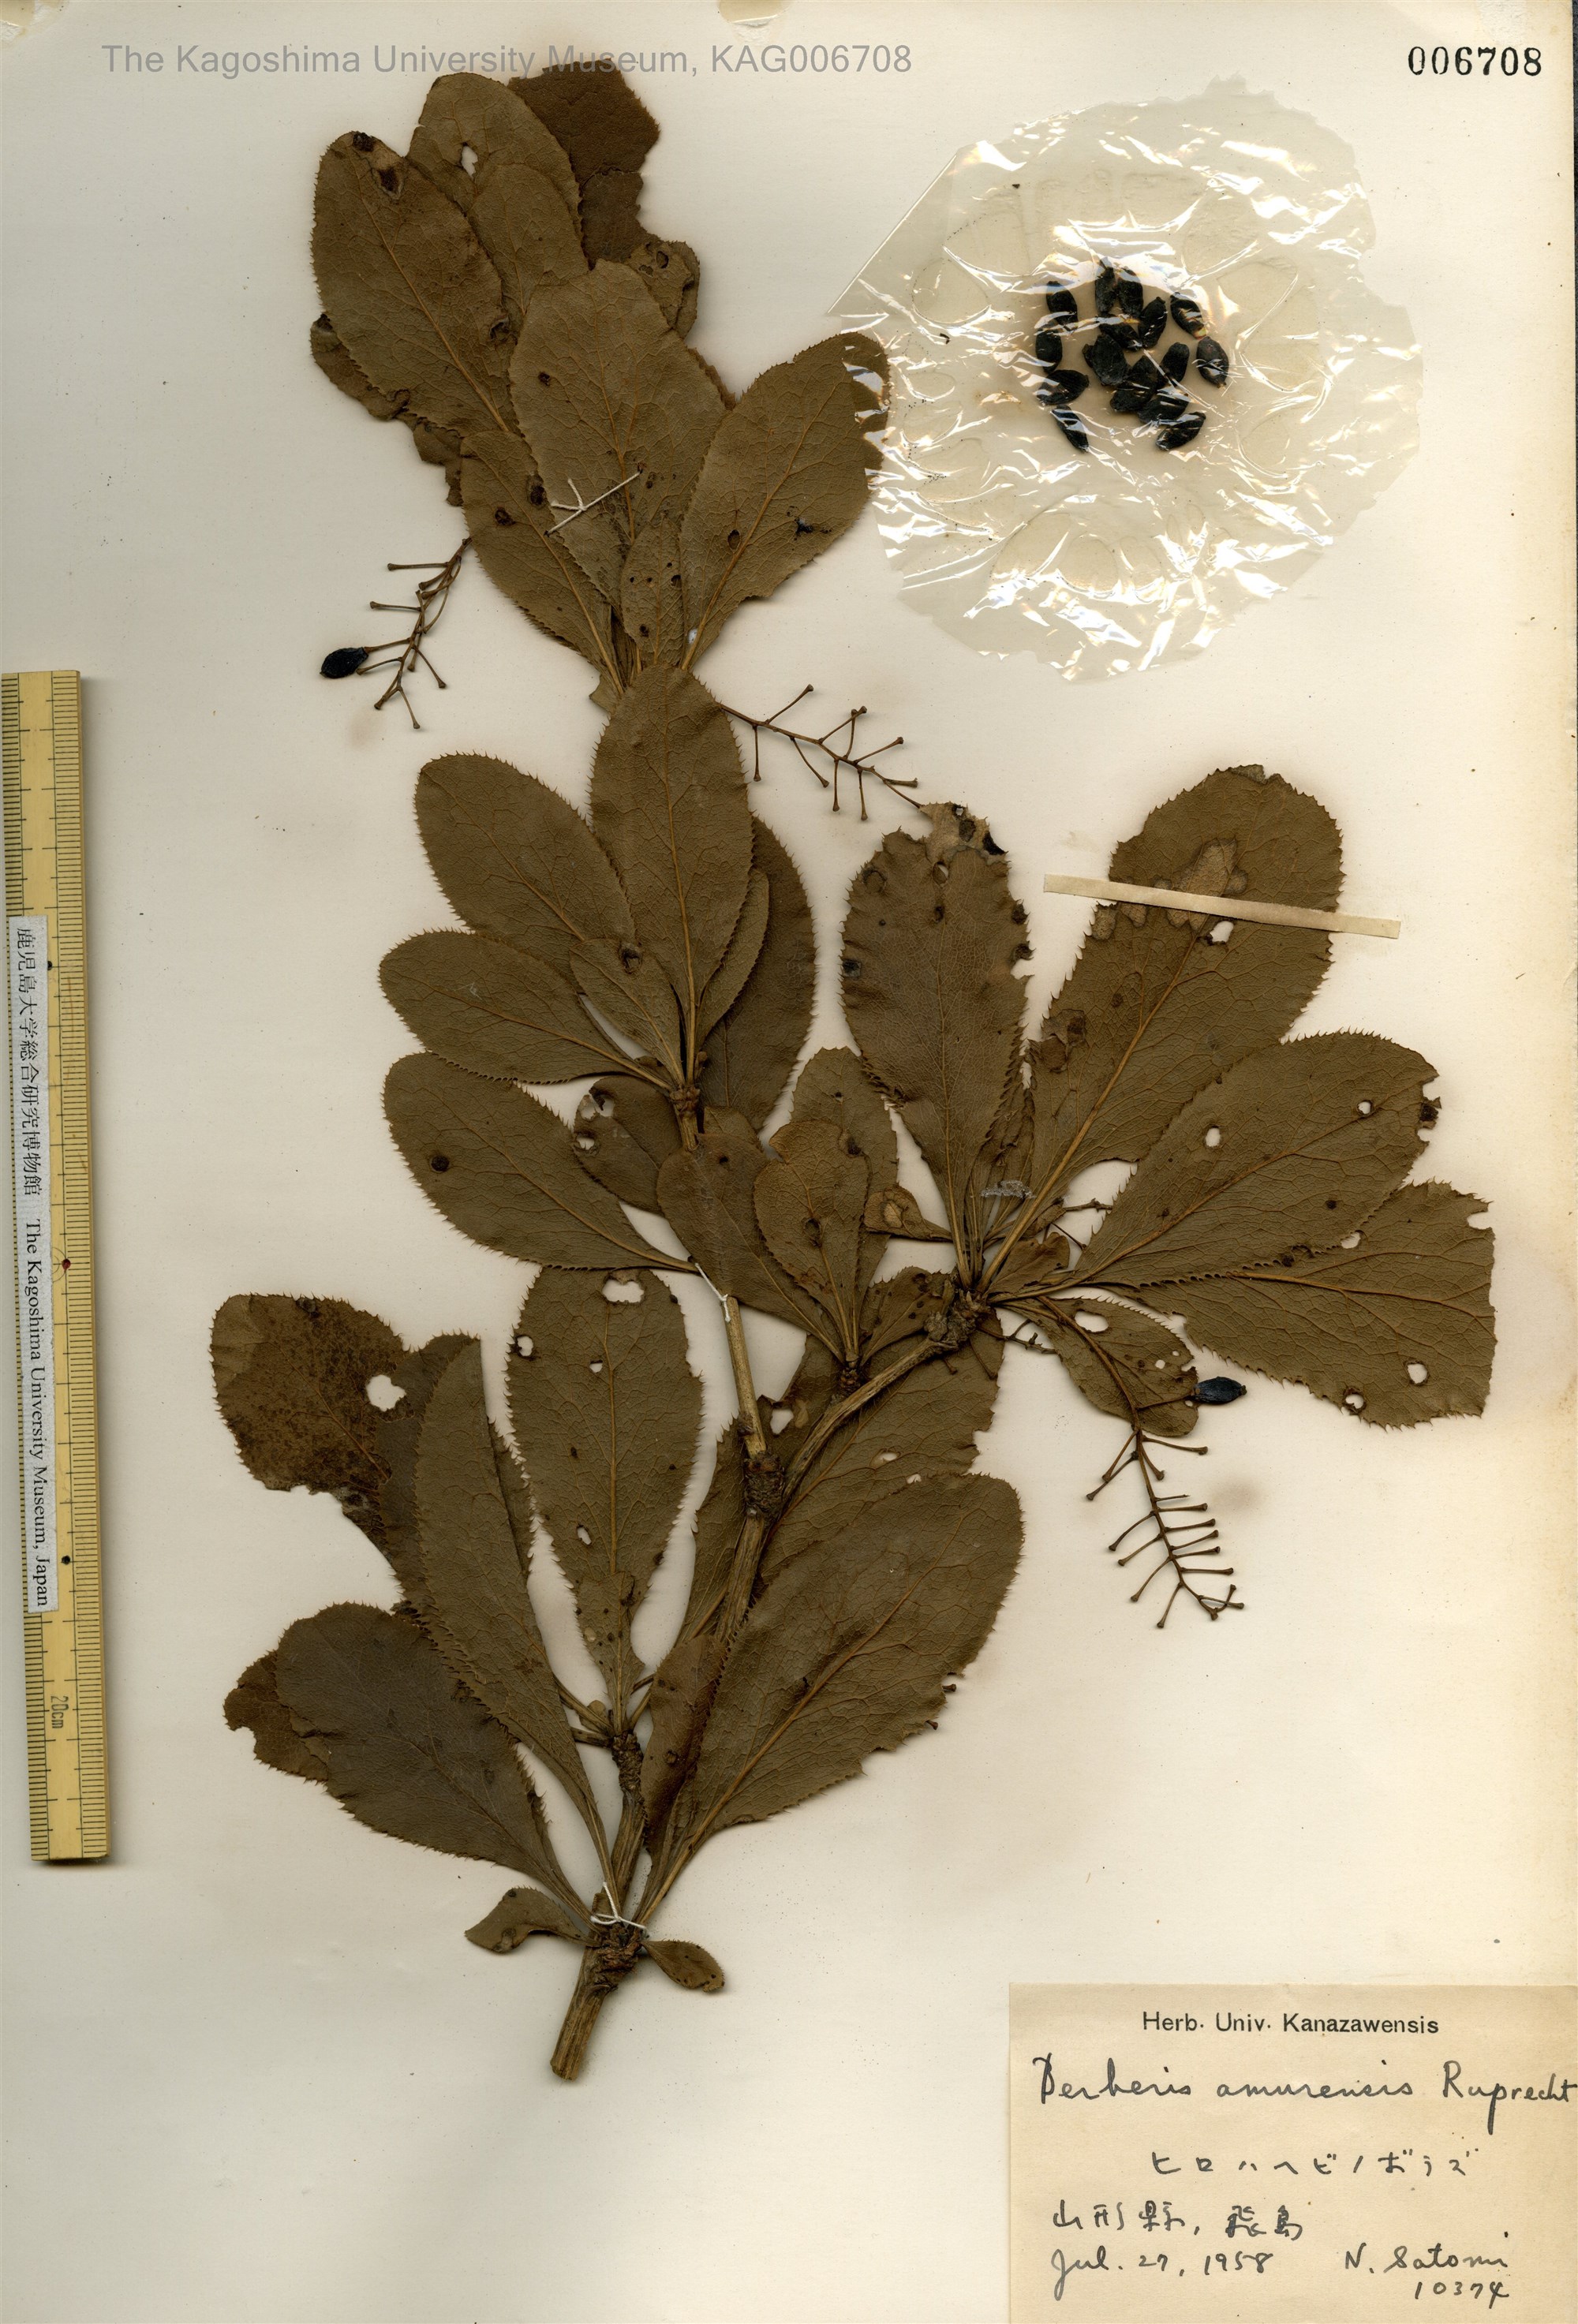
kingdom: Plantae
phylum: Tracheophyta
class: Magnoliopsida
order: Ranunculales
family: Berberidaceae
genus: Berberis
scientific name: Berberis amurensis
